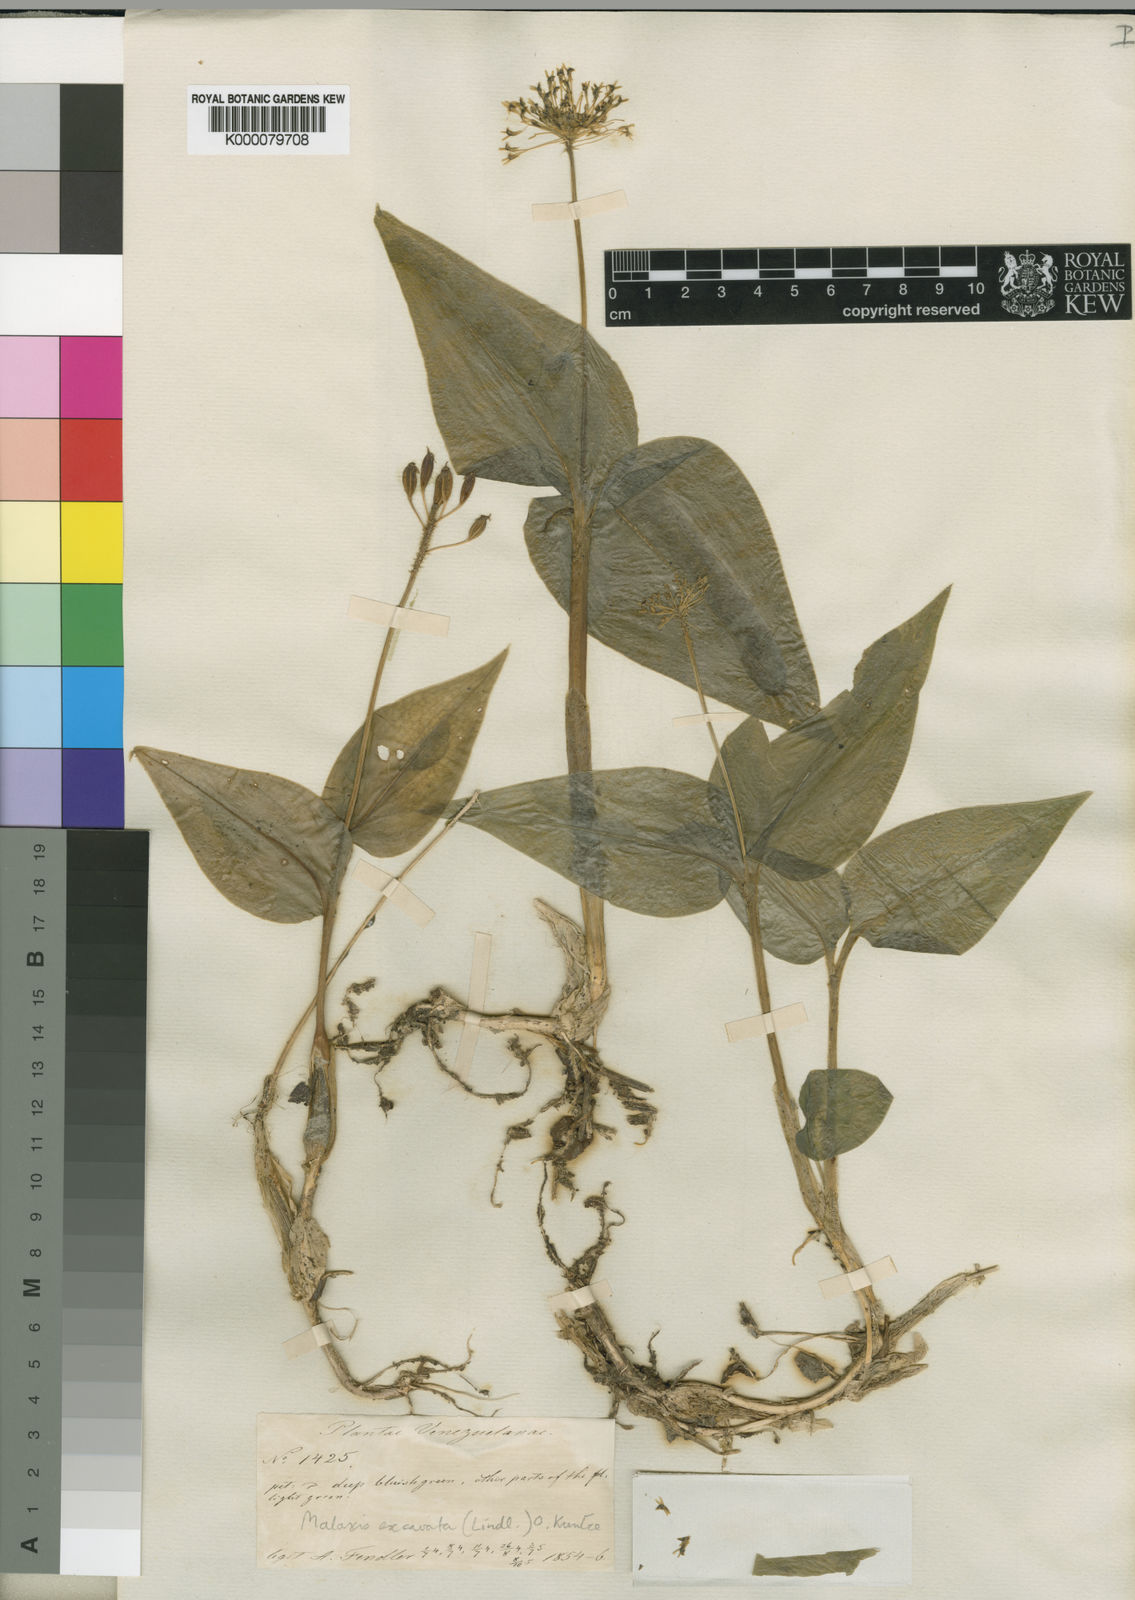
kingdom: Plantae
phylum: Tracheophyta
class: Liliopsida
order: Asparagales
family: Orchidaceae
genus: Malaxis
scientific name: Malaxis excavata
